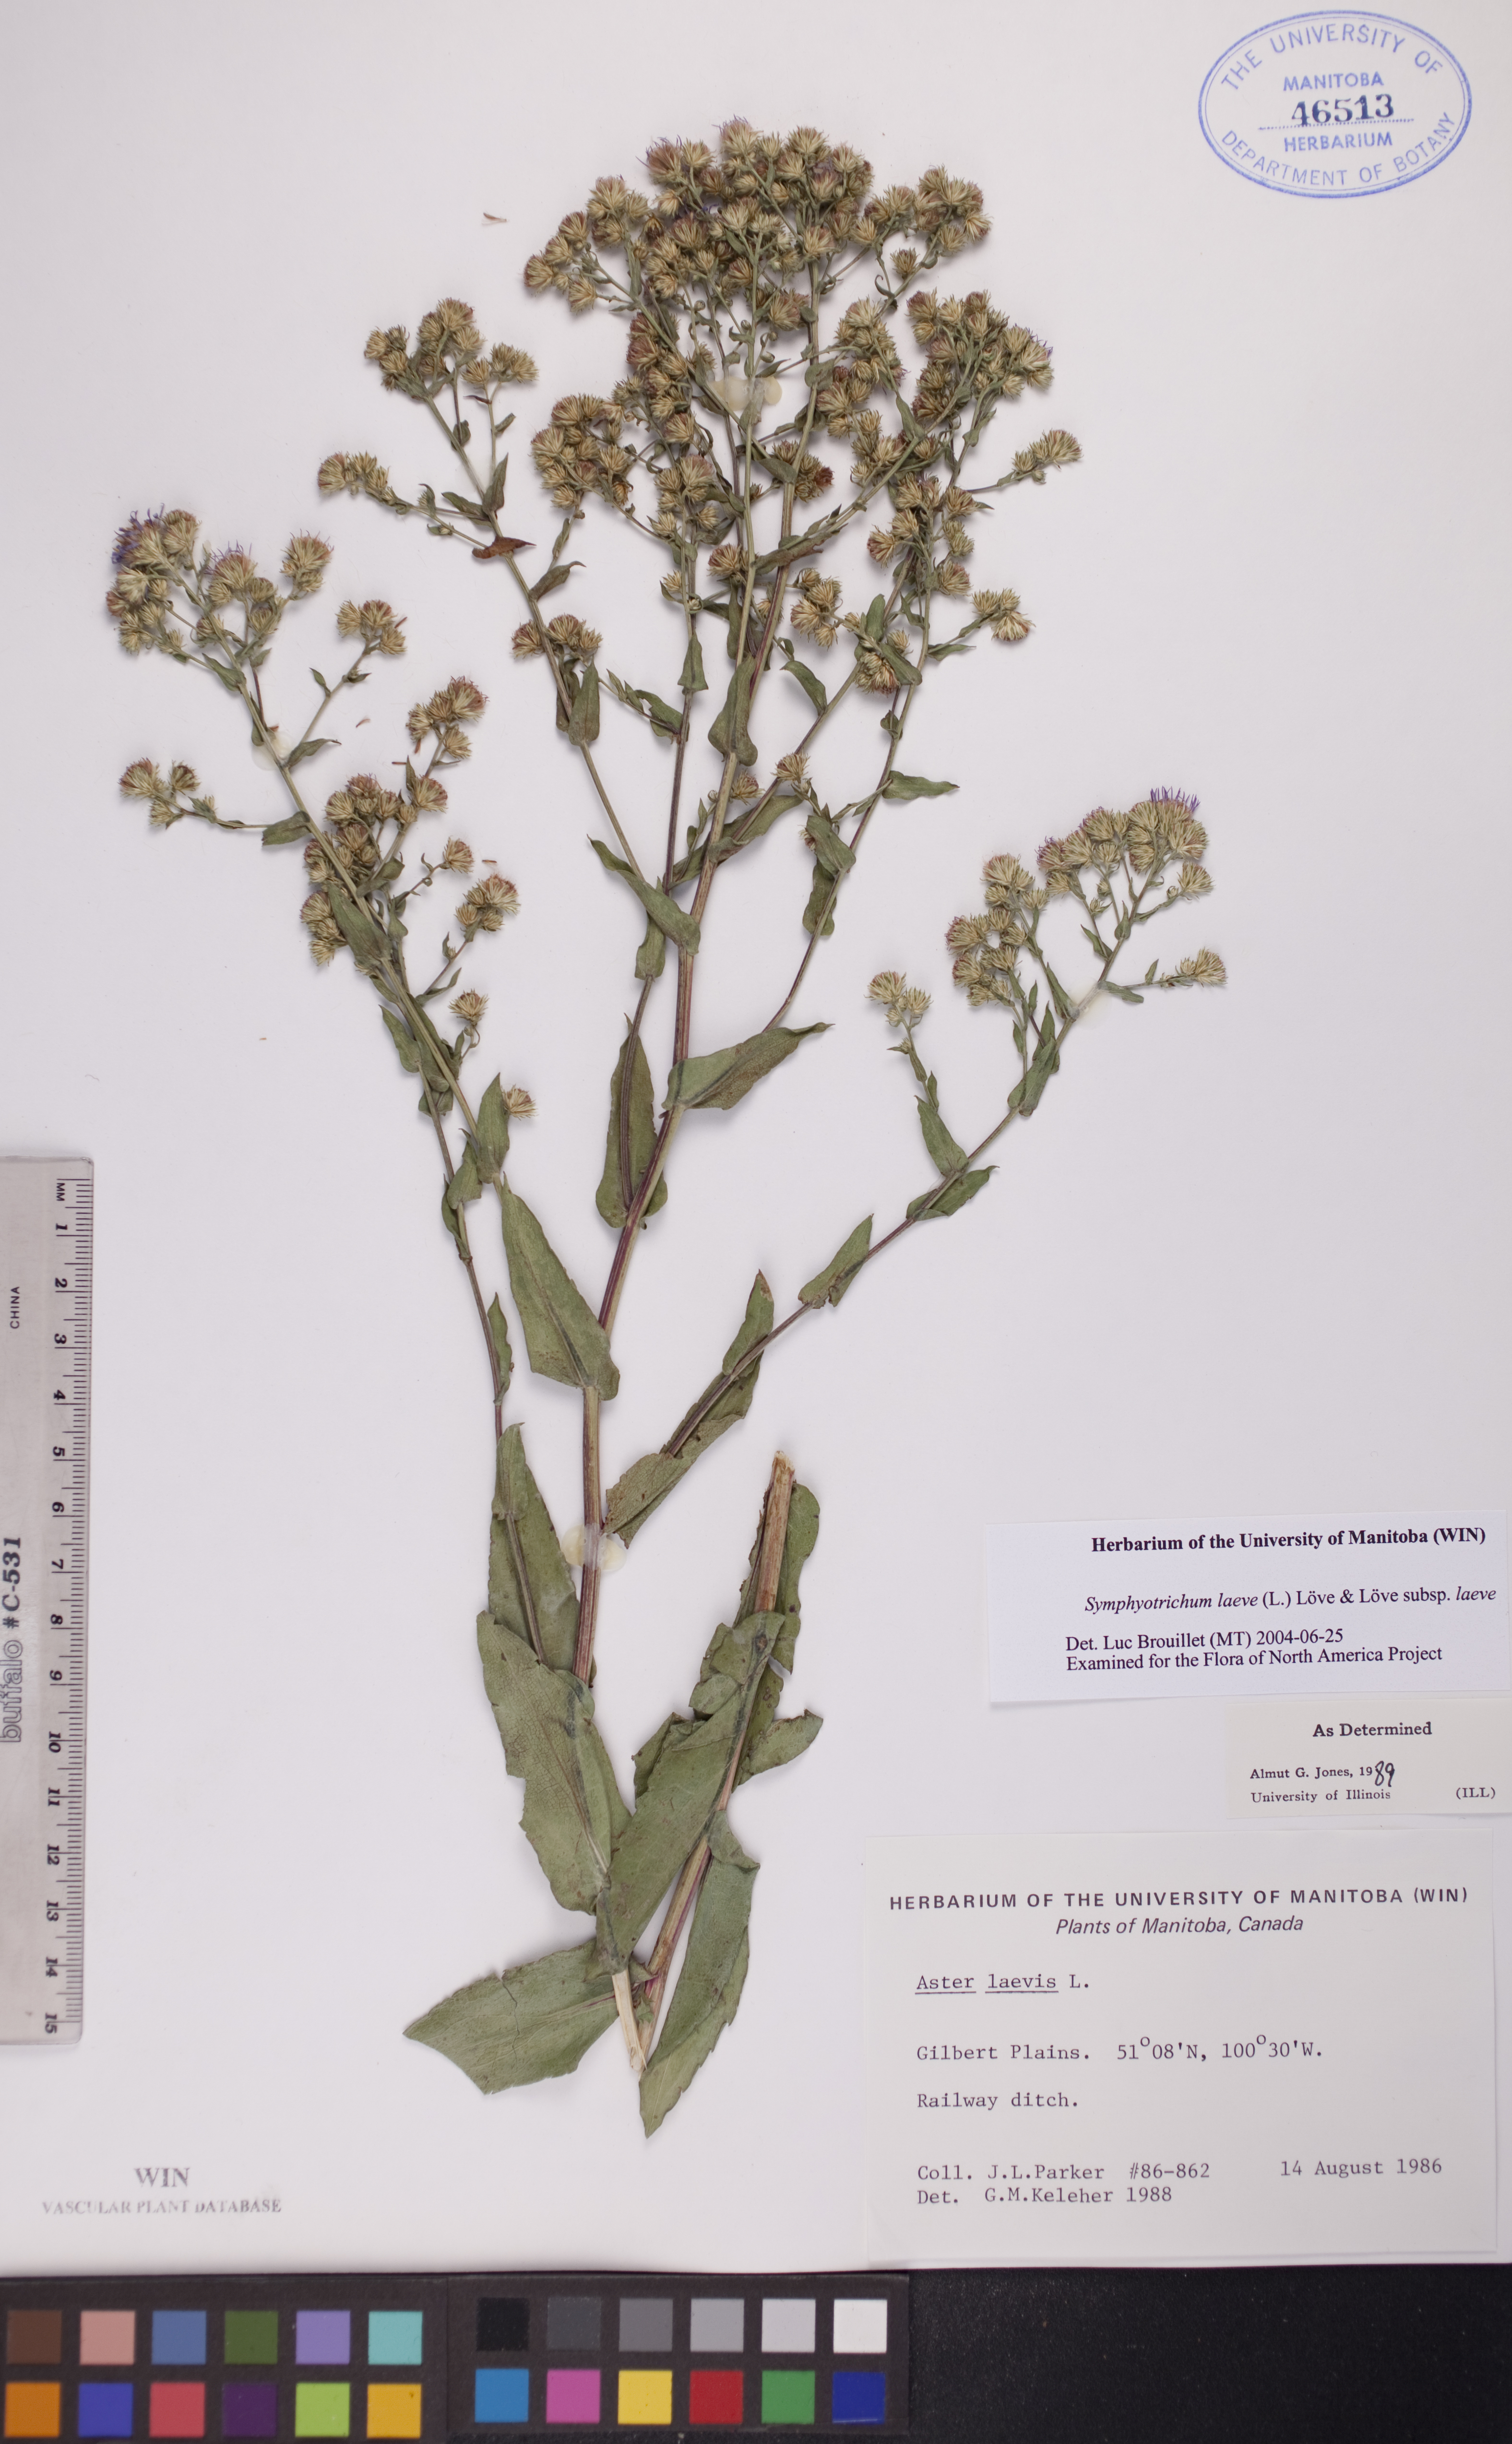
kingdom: Plantae
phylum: Tracheophyta
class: Magnoliopsida
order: Asterales
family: Asteraceae
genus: Symphyotrichum
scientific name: Symphyotrichum laeve
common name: Glaucous aster
